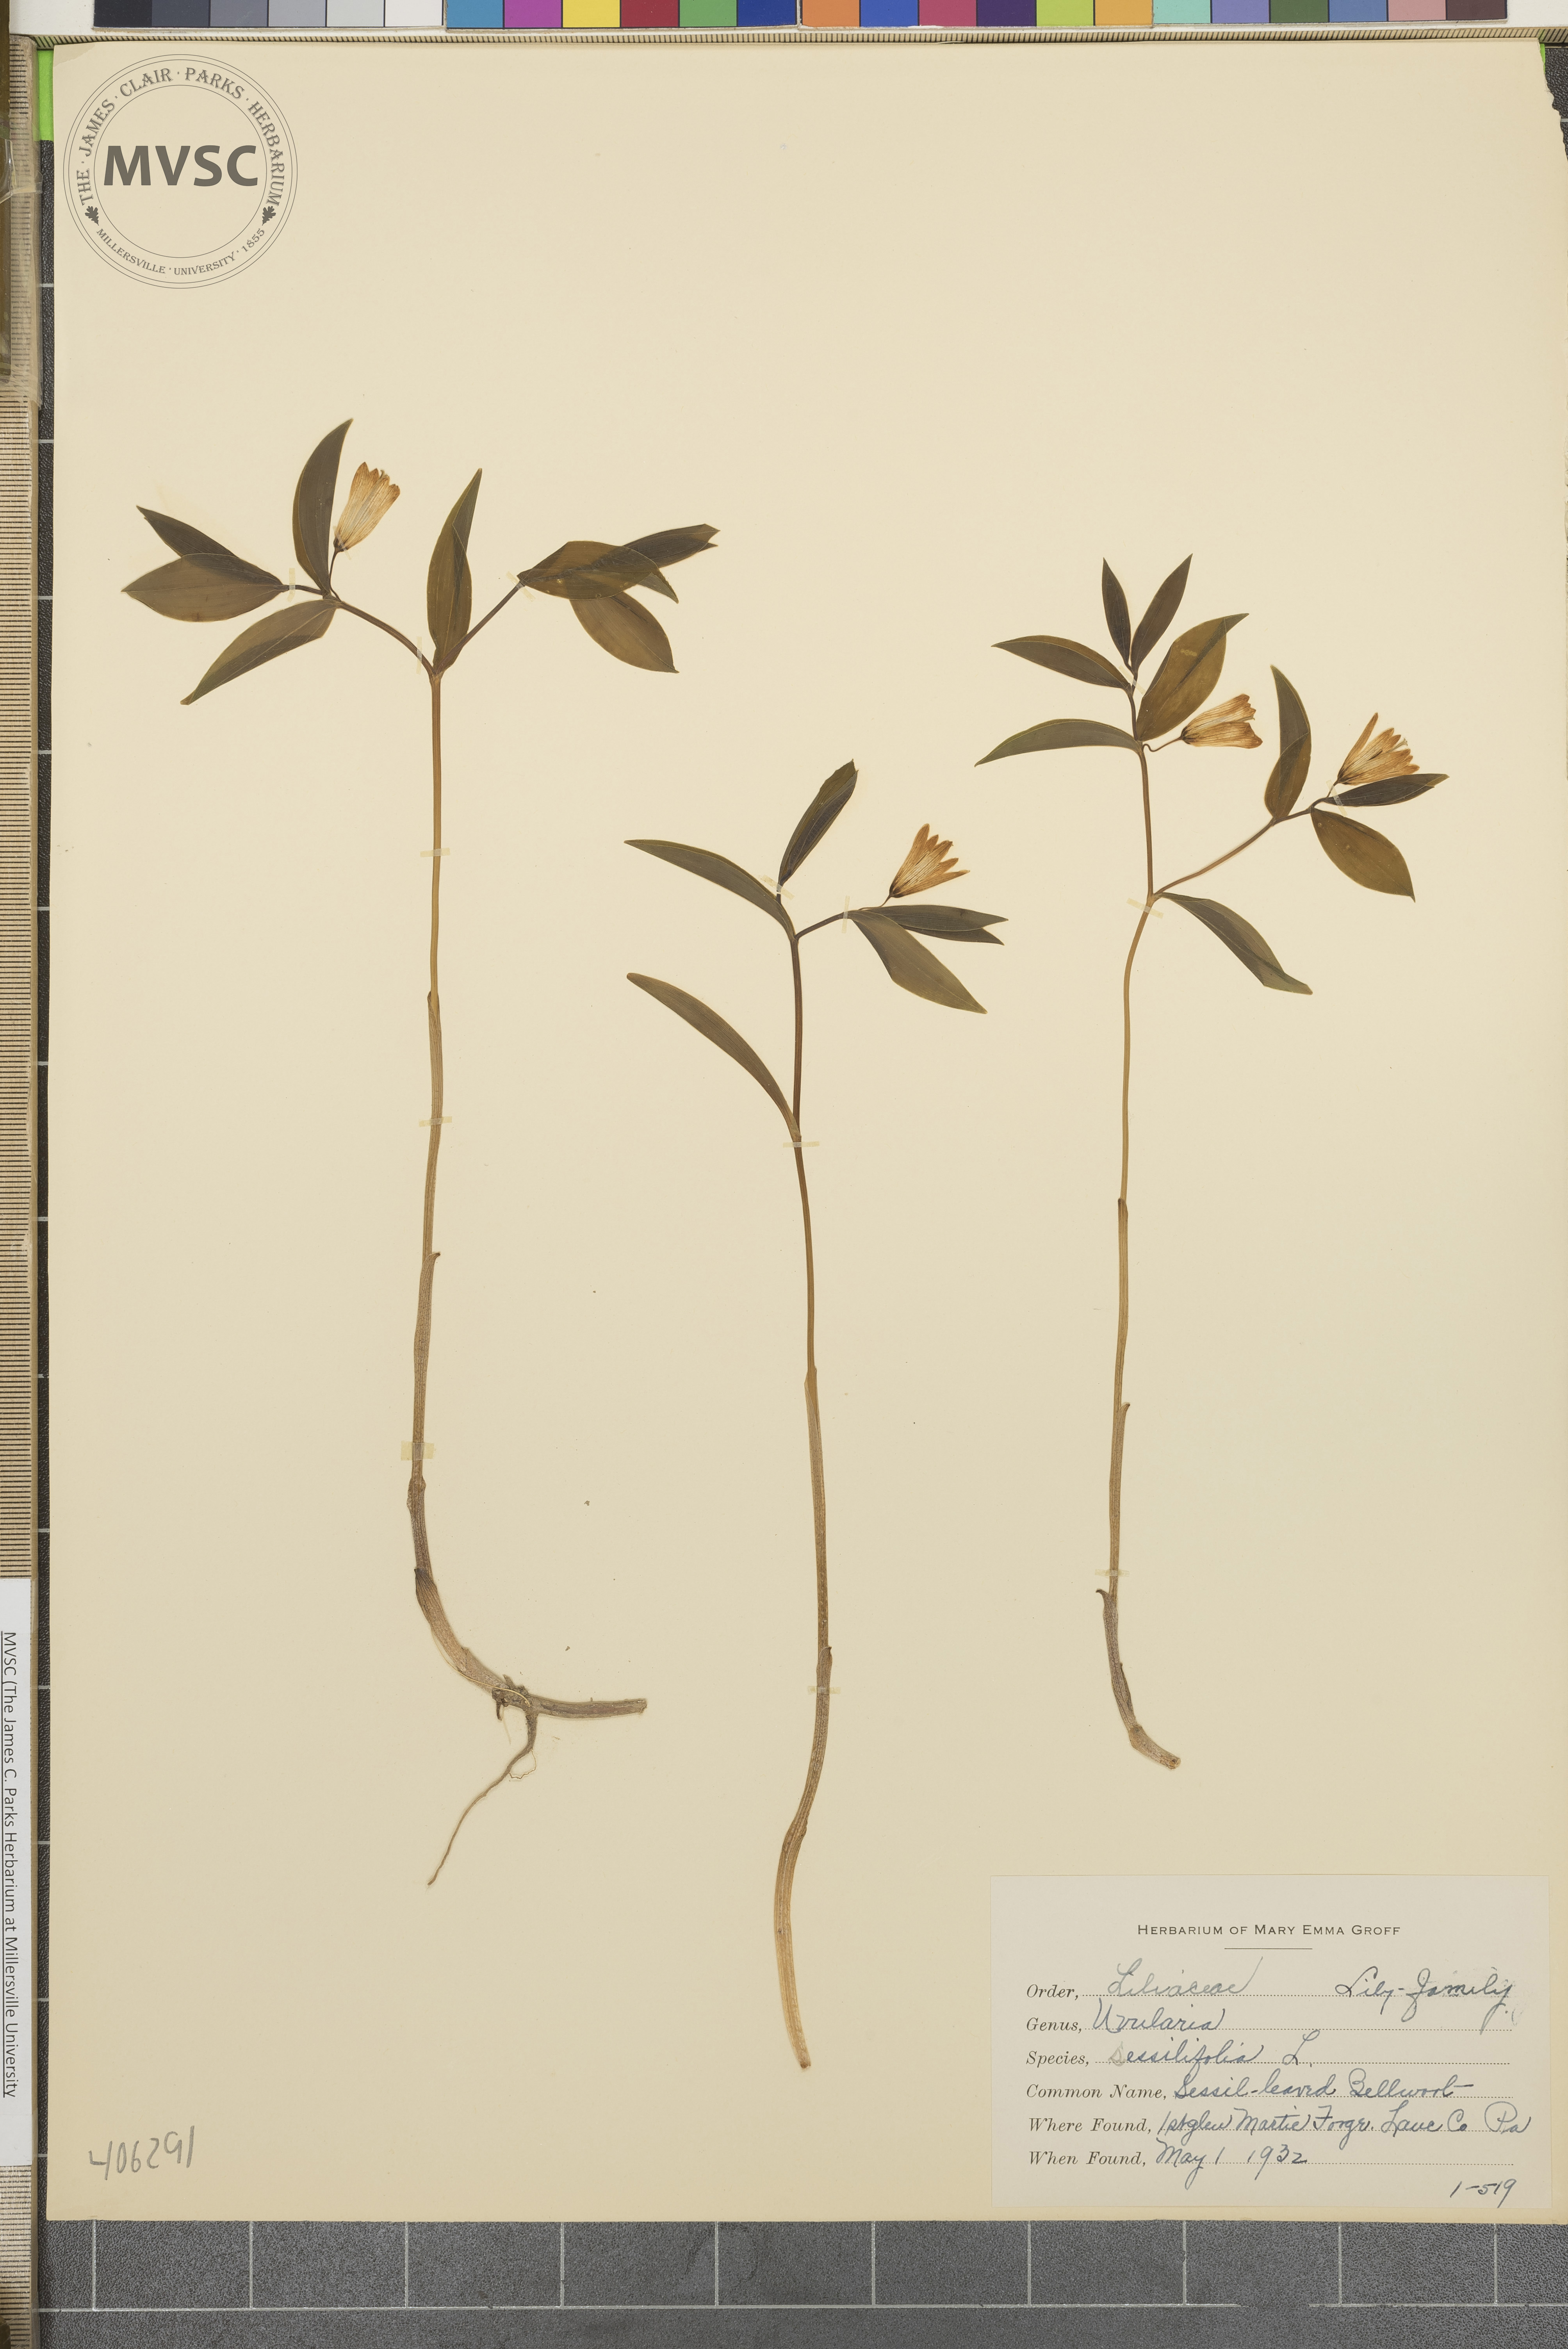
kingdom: Plantae
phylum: Tracheophyta
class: Liliopsida
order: Liliales
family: Colchicaceae
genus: Uvularia
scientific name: Uvularia sessilifolia
